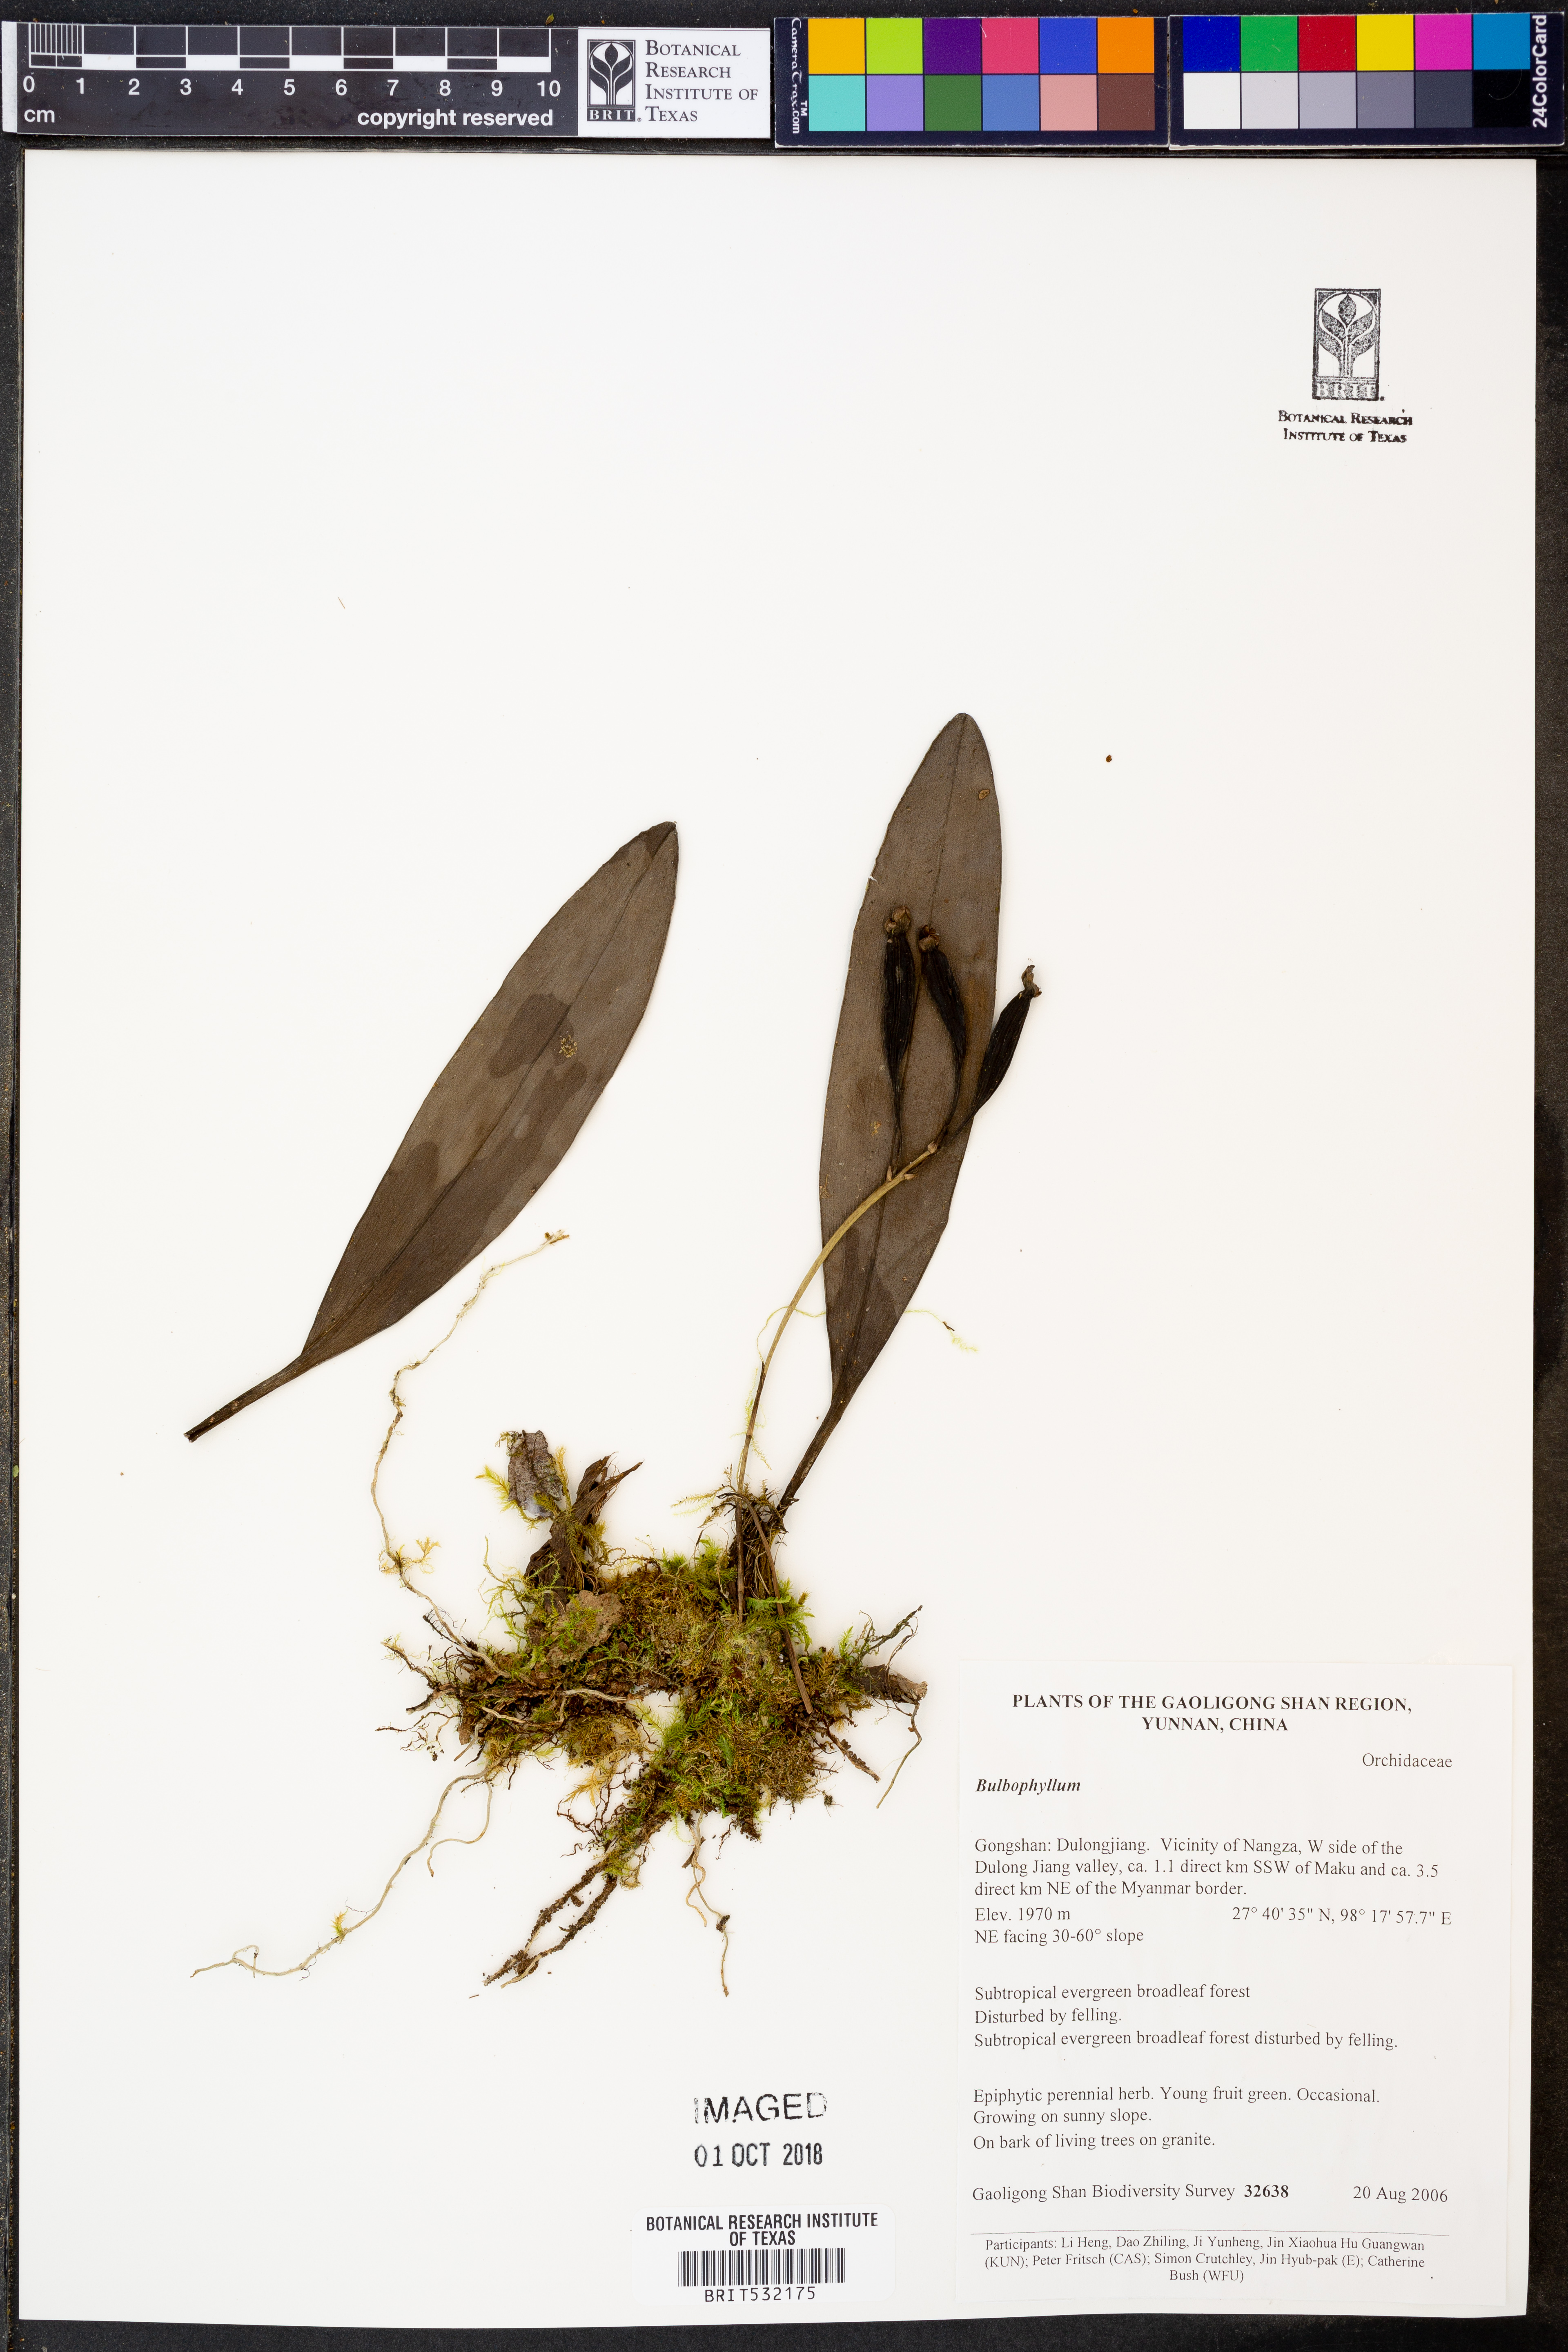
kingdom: Plantae
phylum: Tracheophyta
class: Liliopsida
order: Asparagales
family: Orchidaceae
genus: Bulbophyllum
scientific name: Bulbophyllum
